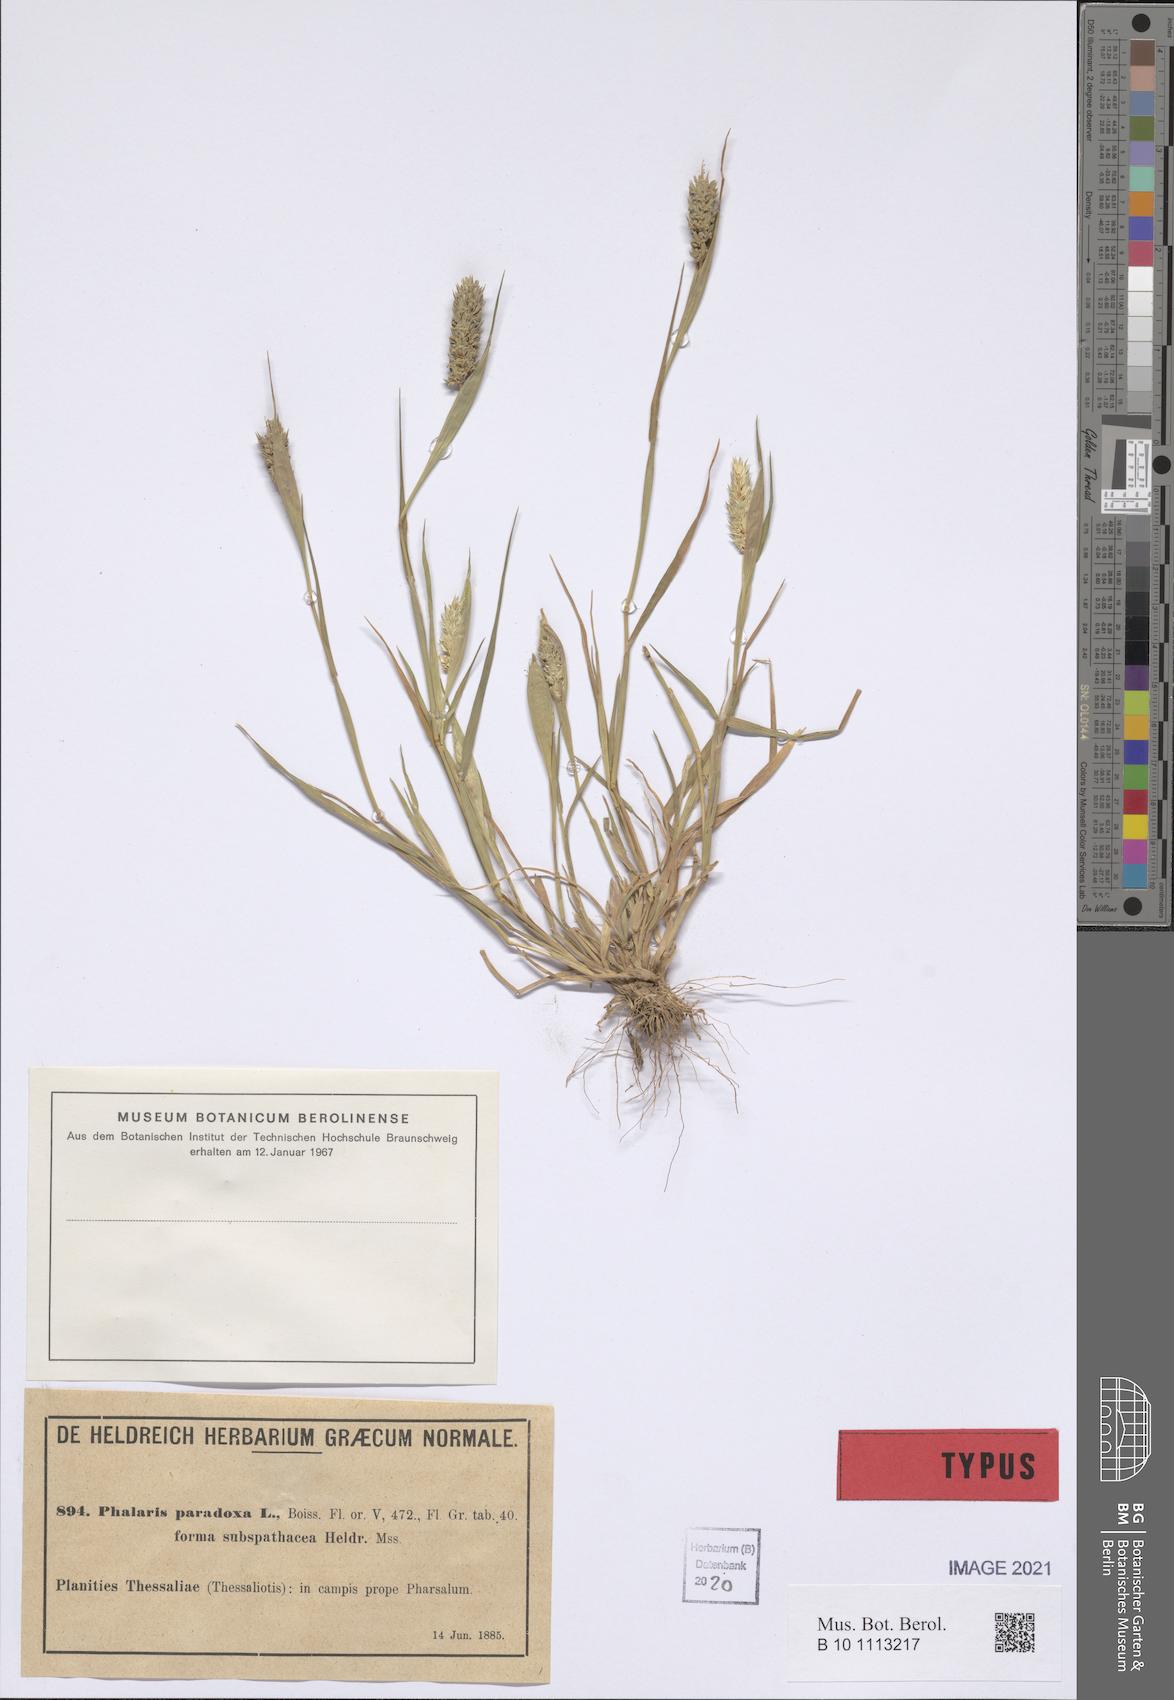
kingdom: Plantae
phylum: Tracheophyta
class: Liliopsida
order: Poales
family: Poaceae
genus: Phalaris
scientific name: Phalaris paradoxa
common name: Awned canary-grass
